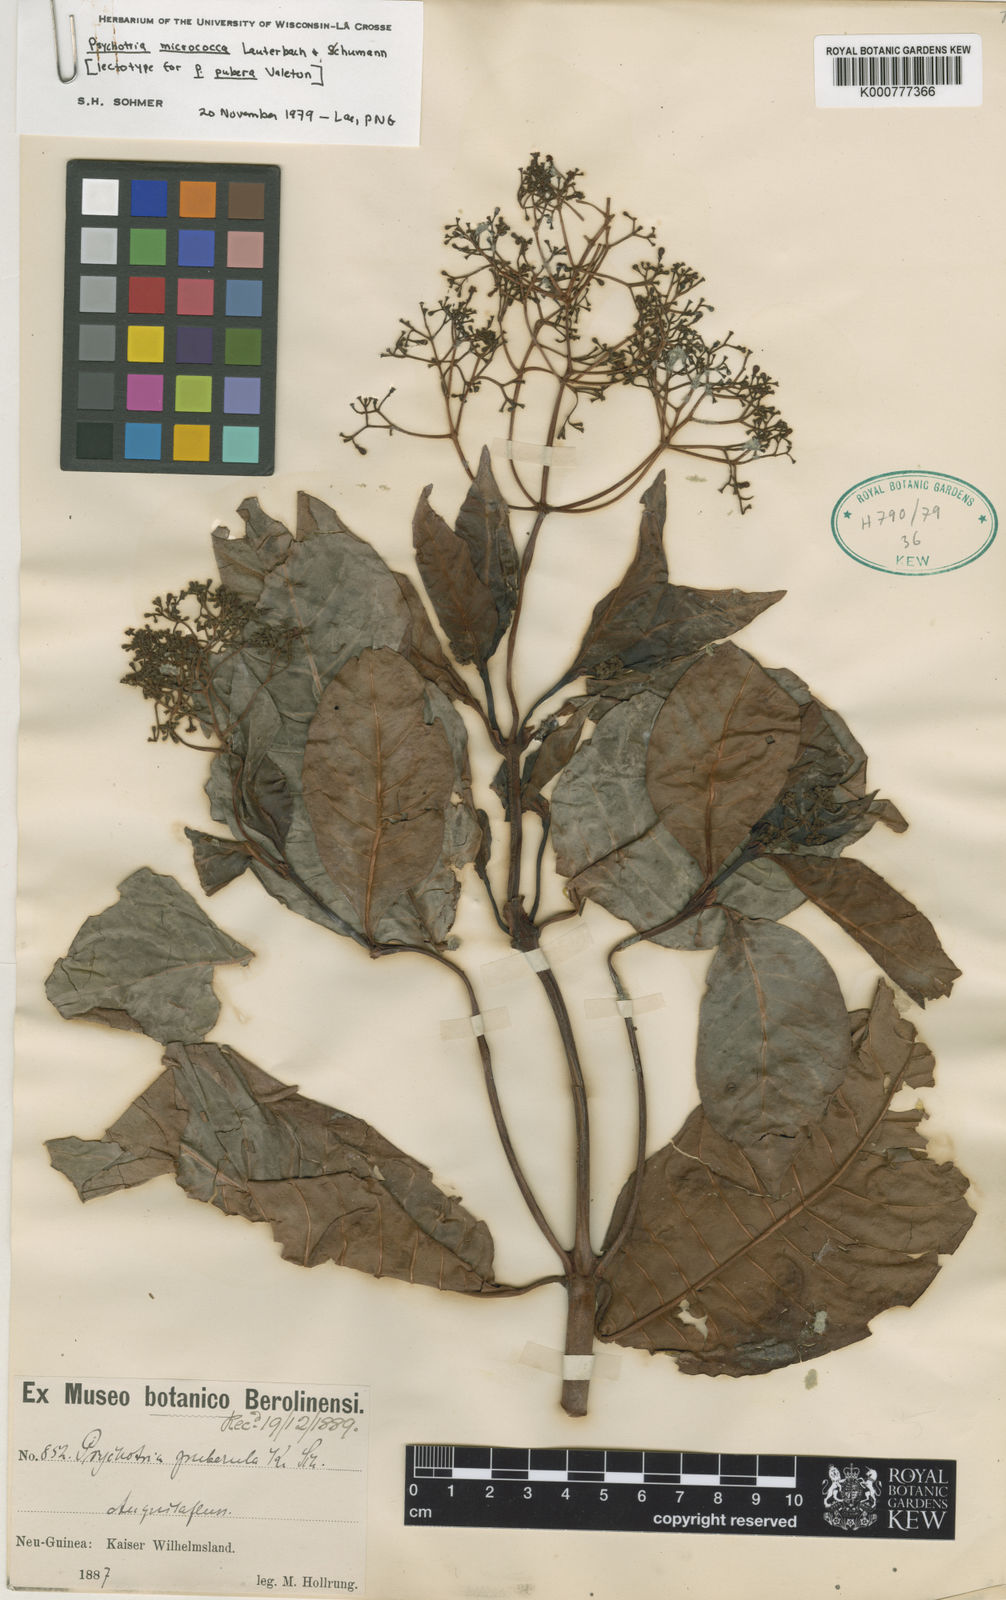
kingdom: Plantae
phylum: Tracheophyta
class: Magnoliopsida
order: Gentianales
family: Rubiaceae
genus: Psychotria
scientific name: Psychotria micrococca
